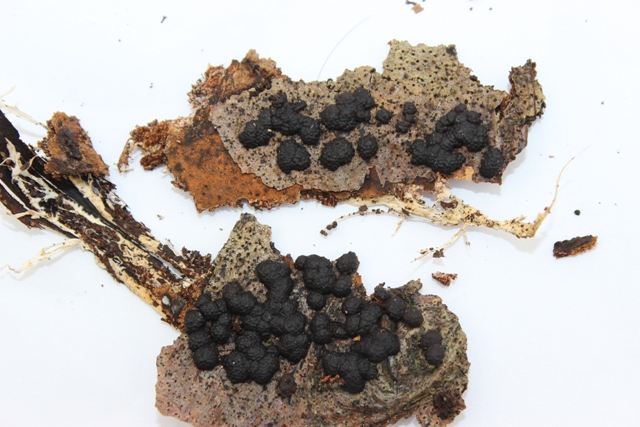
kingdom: Fungi
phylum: Ascomycota
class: Sordariomycetes
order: Xylariales
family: Hypoxylaceae
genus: Jackrogersella
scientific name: Jackrogersella cohaerens
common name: sammenflydende kulbær
